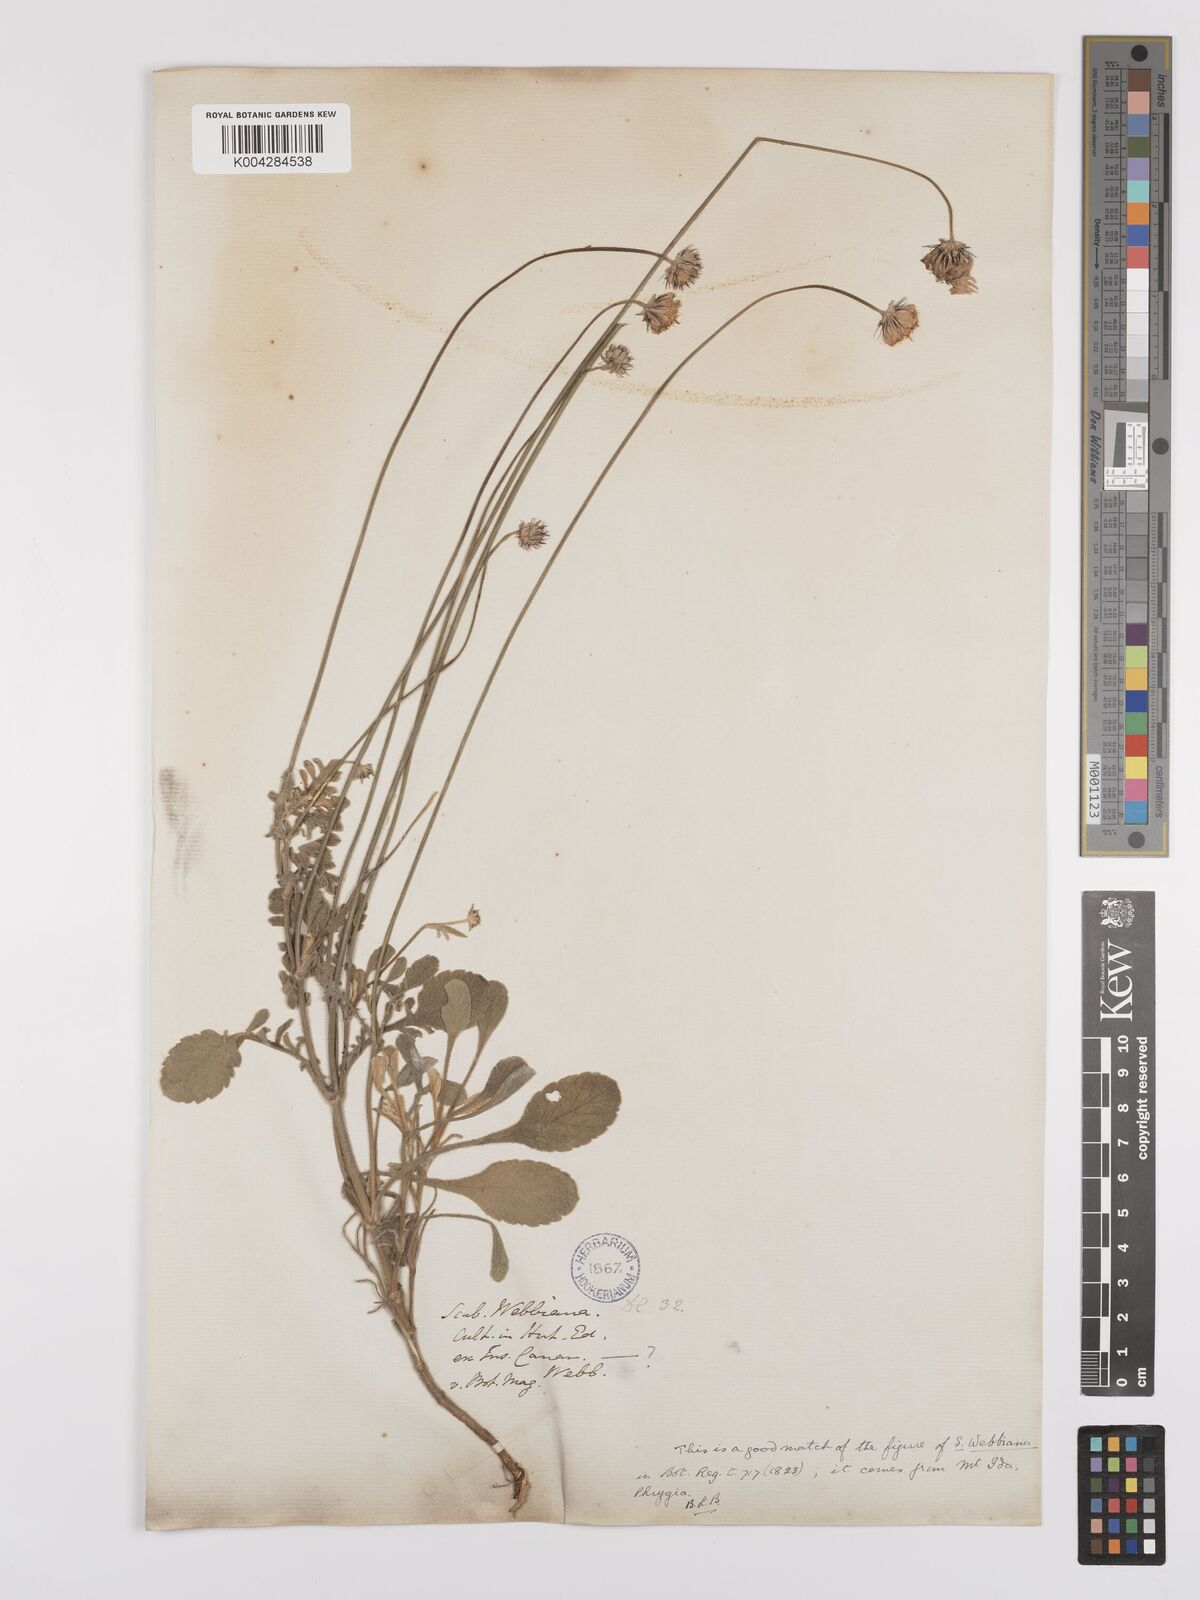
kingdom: Plantae
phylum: Tracheophyta
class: Magnoliopsida
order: Dipsacales
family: Caprifoliaceae
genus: Scabiosa
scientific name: Scabiosa webbiana
